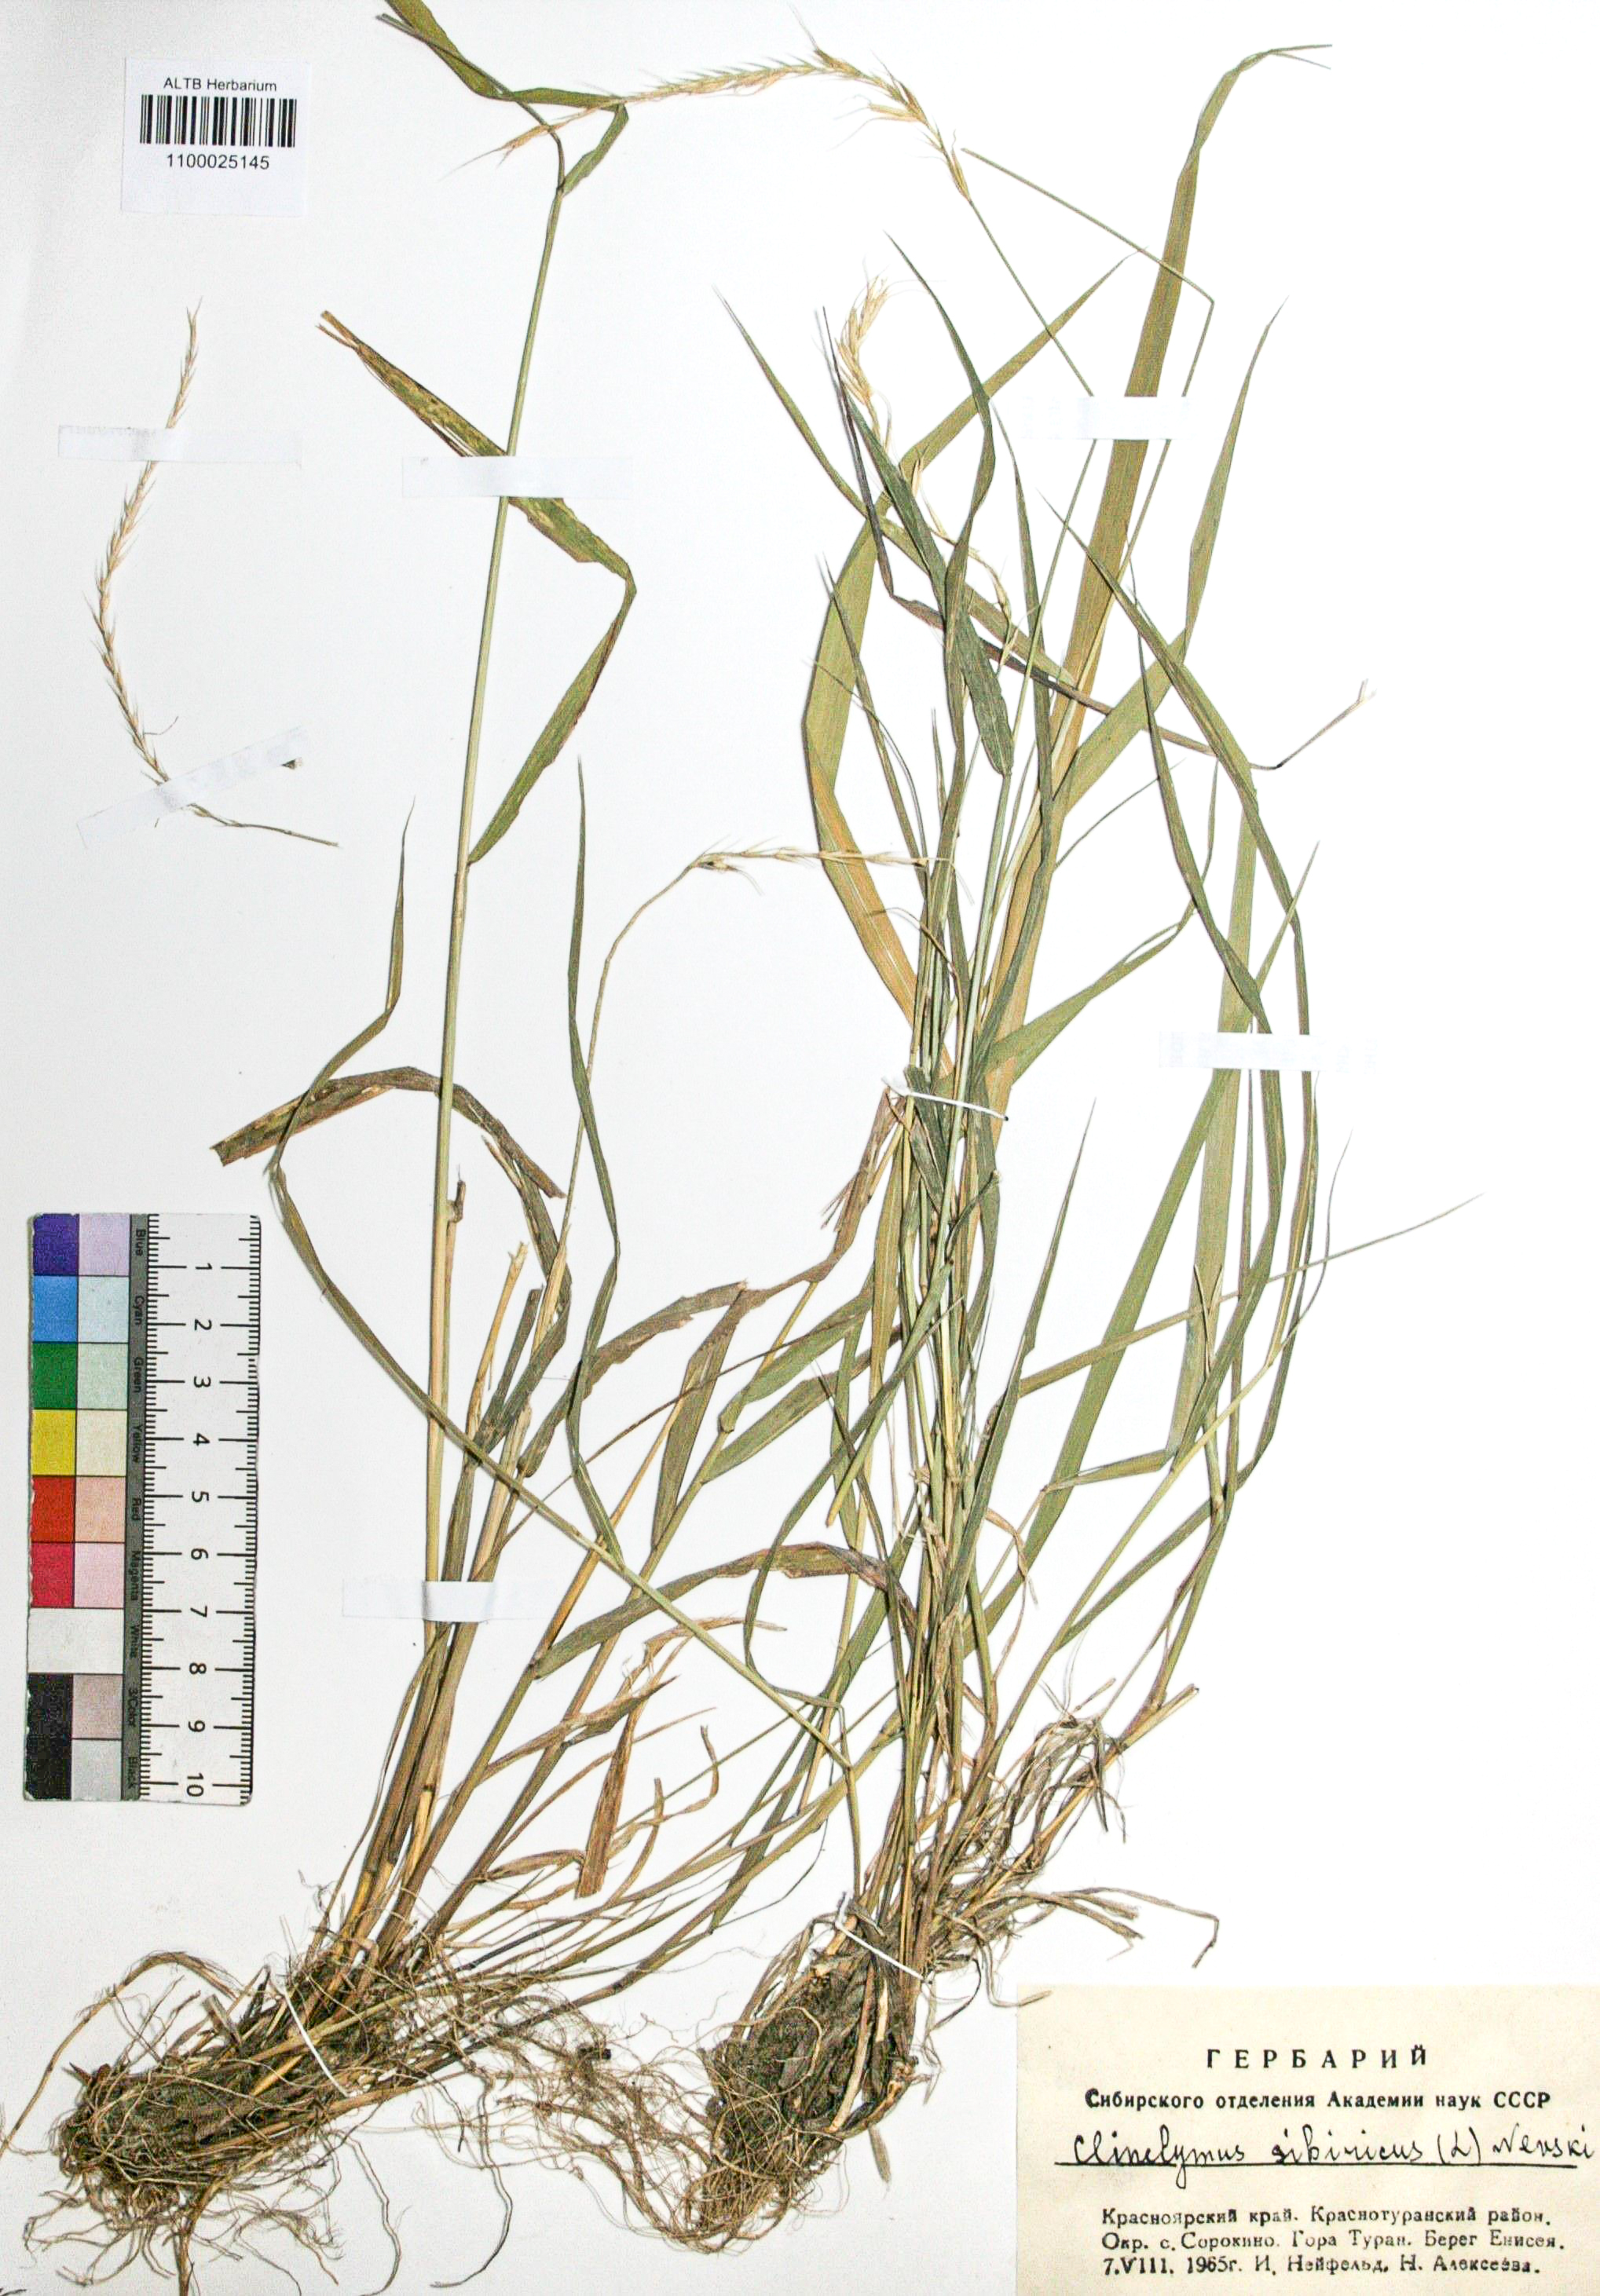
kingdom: Plantae
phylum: Tracheophyta
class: Liliopsida
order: Poales
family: Poaceae
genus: Elymus
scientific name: Elymus sibiricus
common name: Siberian wildrye
